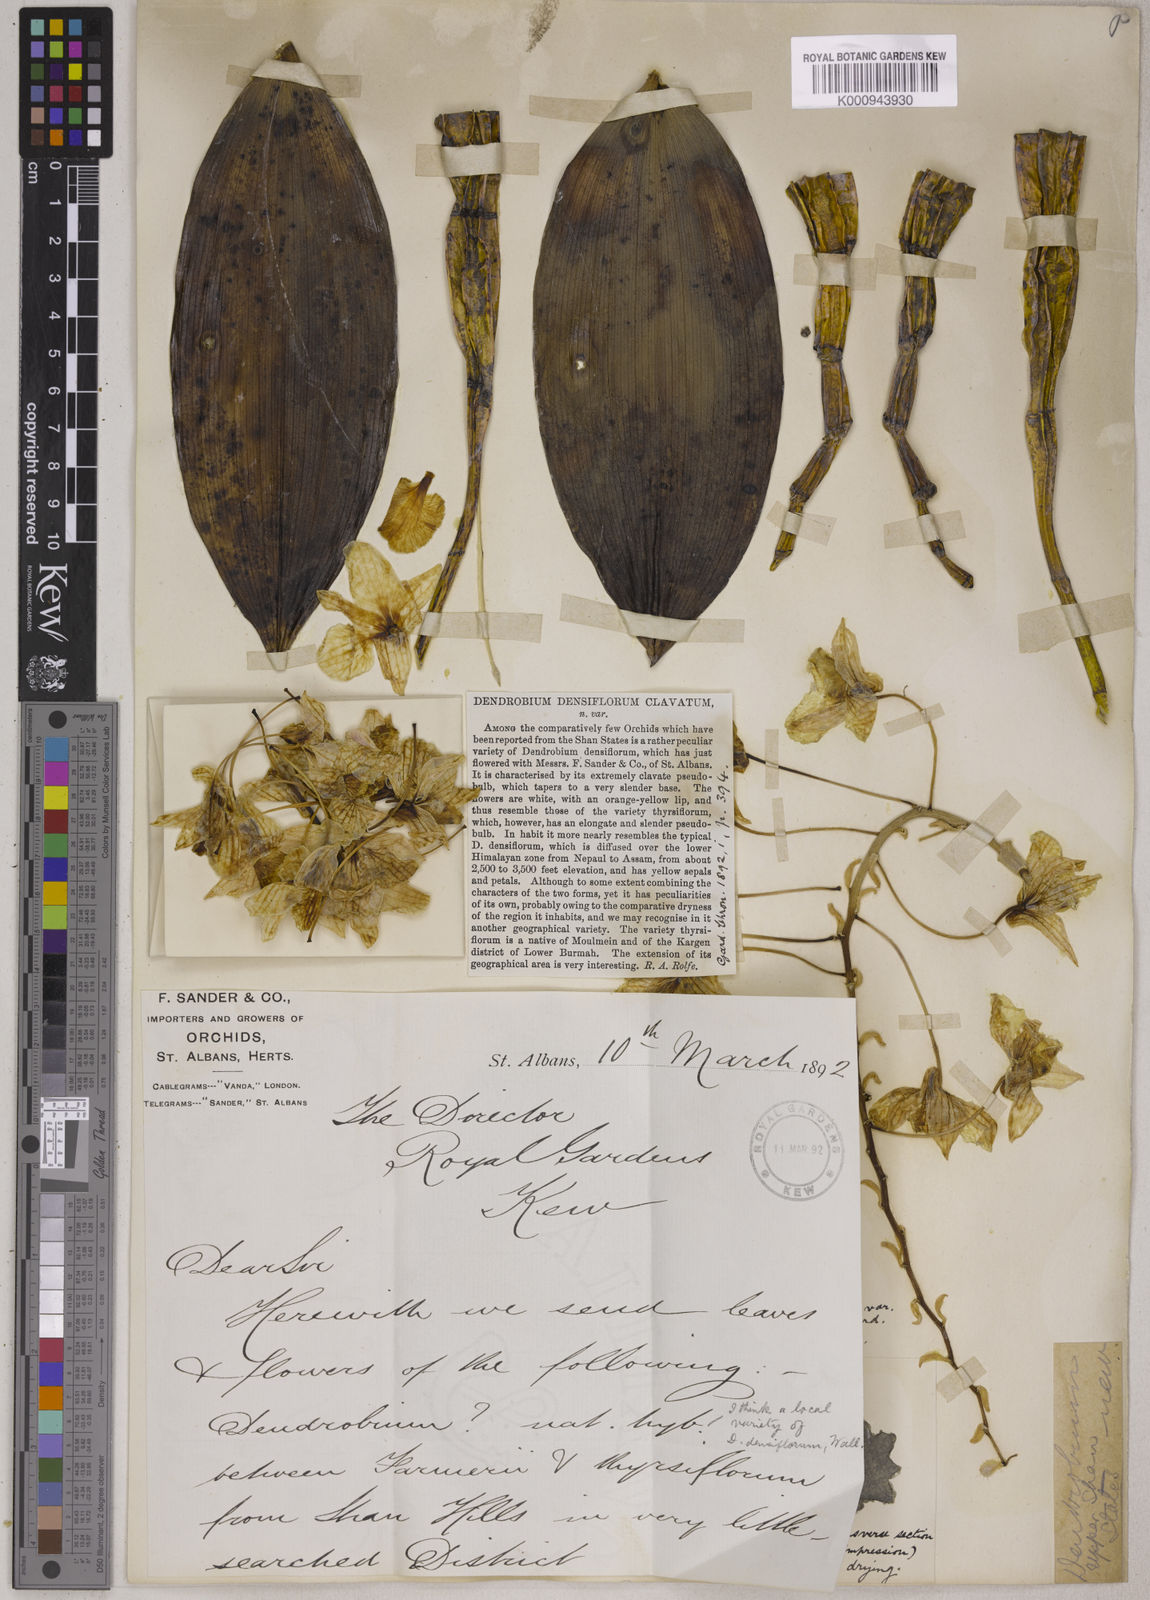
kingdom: Plantae
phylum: Tracheophyta
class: Liliopsida
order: Asparagales
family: Orchidaceae
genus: Dendrobium
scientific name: Dendrobium densiflorum
